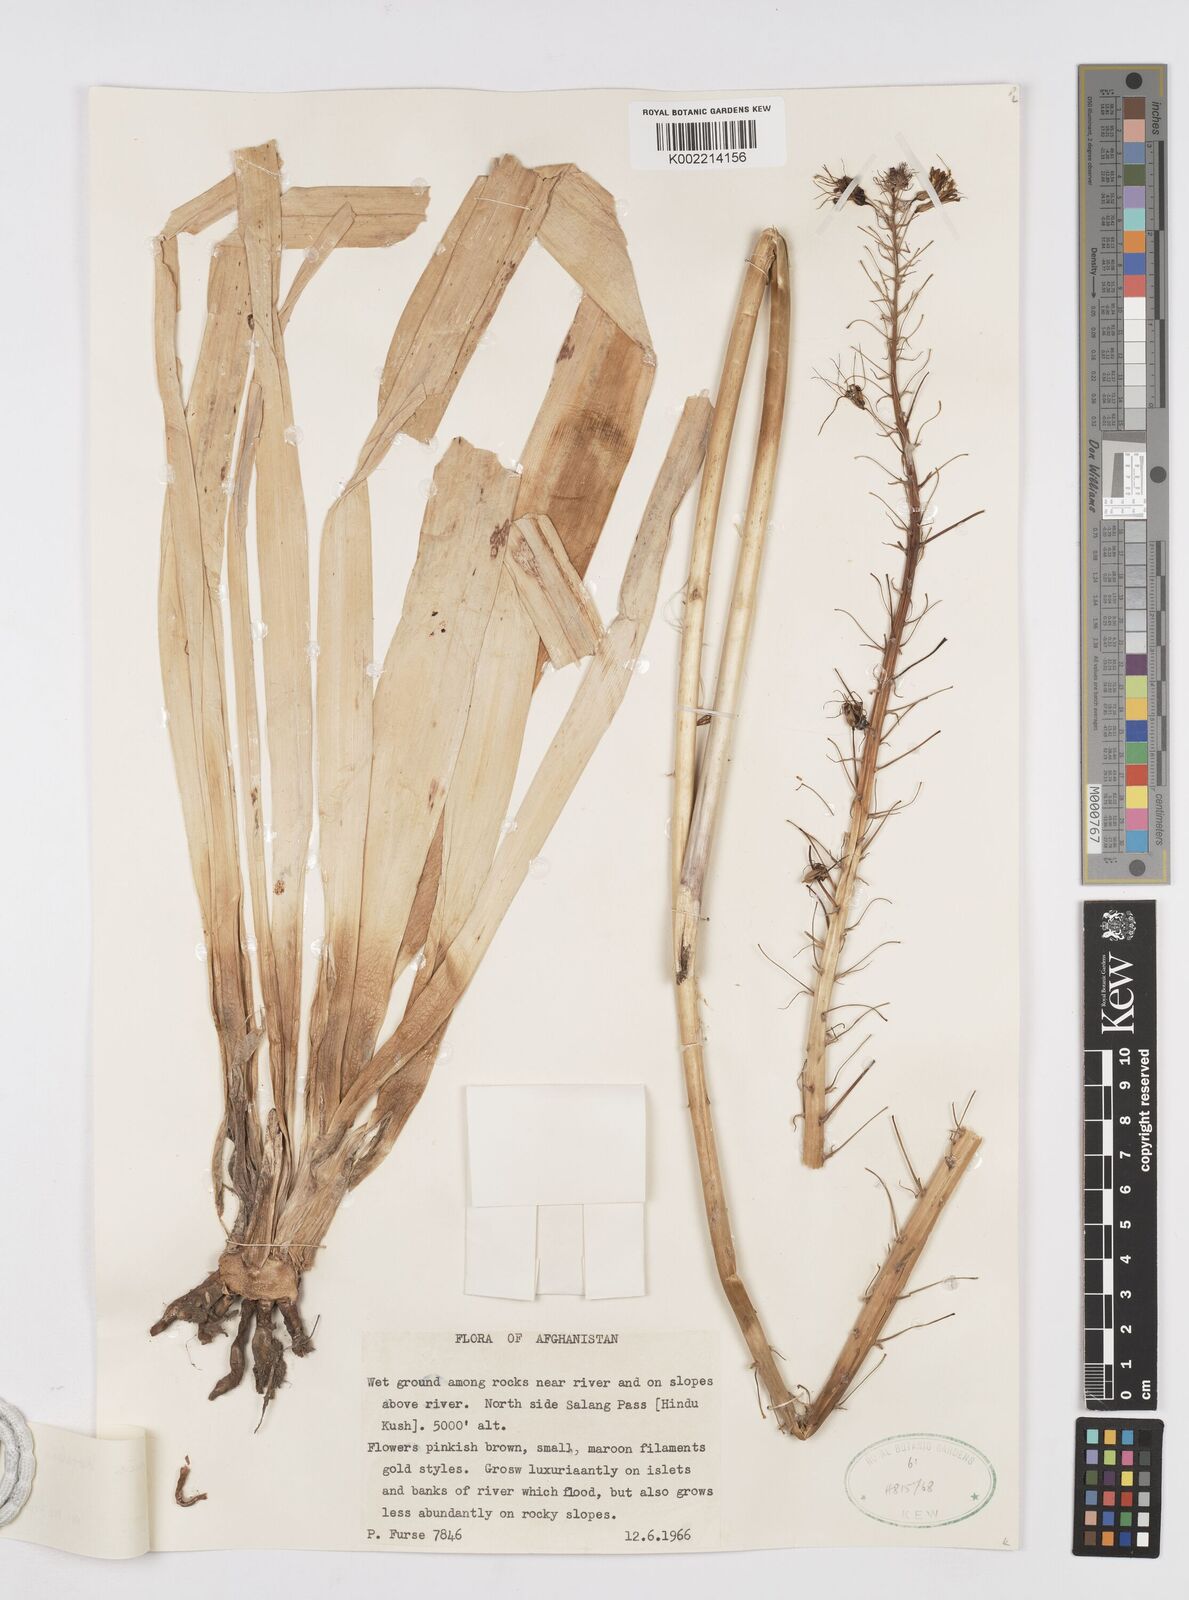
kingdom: Plantae
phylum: Tracheophyta
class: Liliopsida
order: Asparagales
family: Asphodelaceae
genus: Eremurus
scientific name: Eremurus korshinskyi
